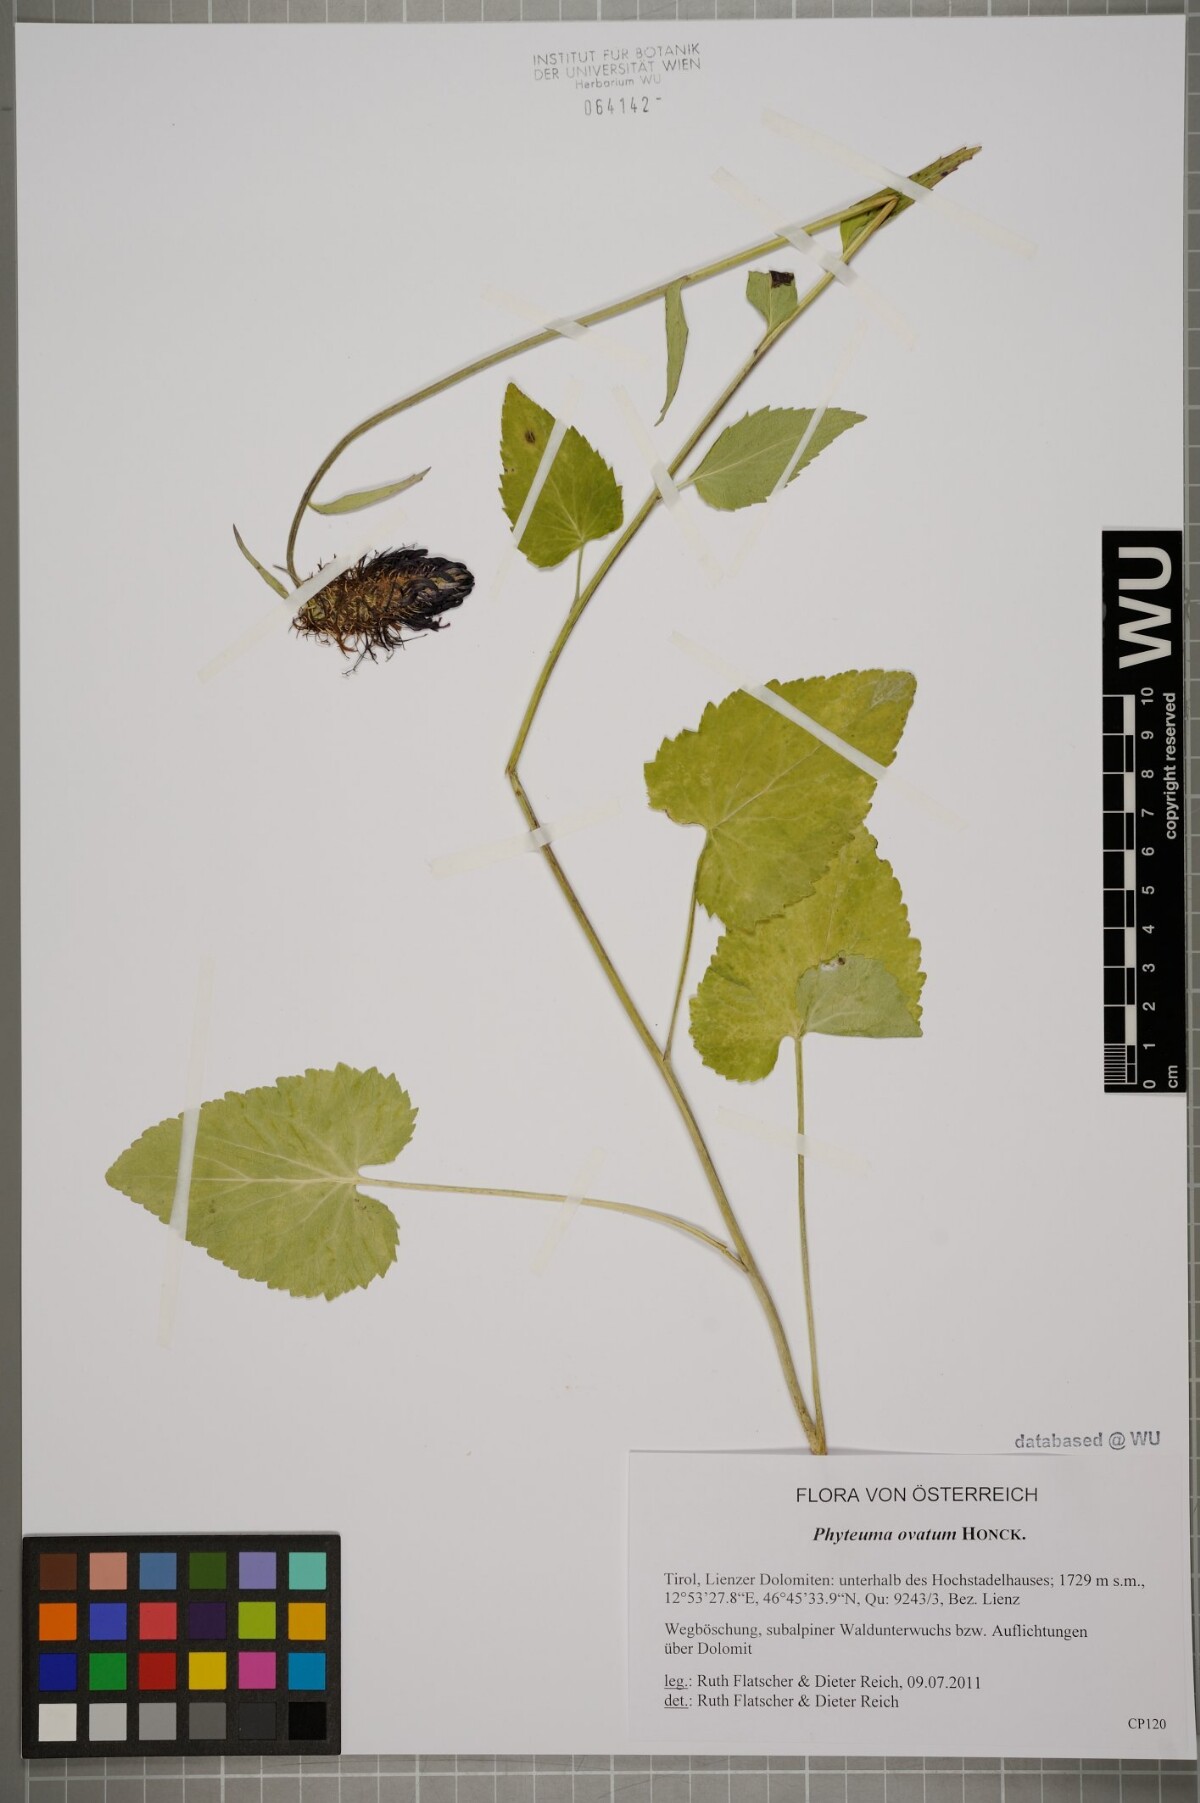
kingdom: Plantae
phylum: Tracheophyta
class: Magnoliopsida
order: Asterales
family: Campanulaceae
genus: Phyteuma
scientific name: Phyteuma ovatum
